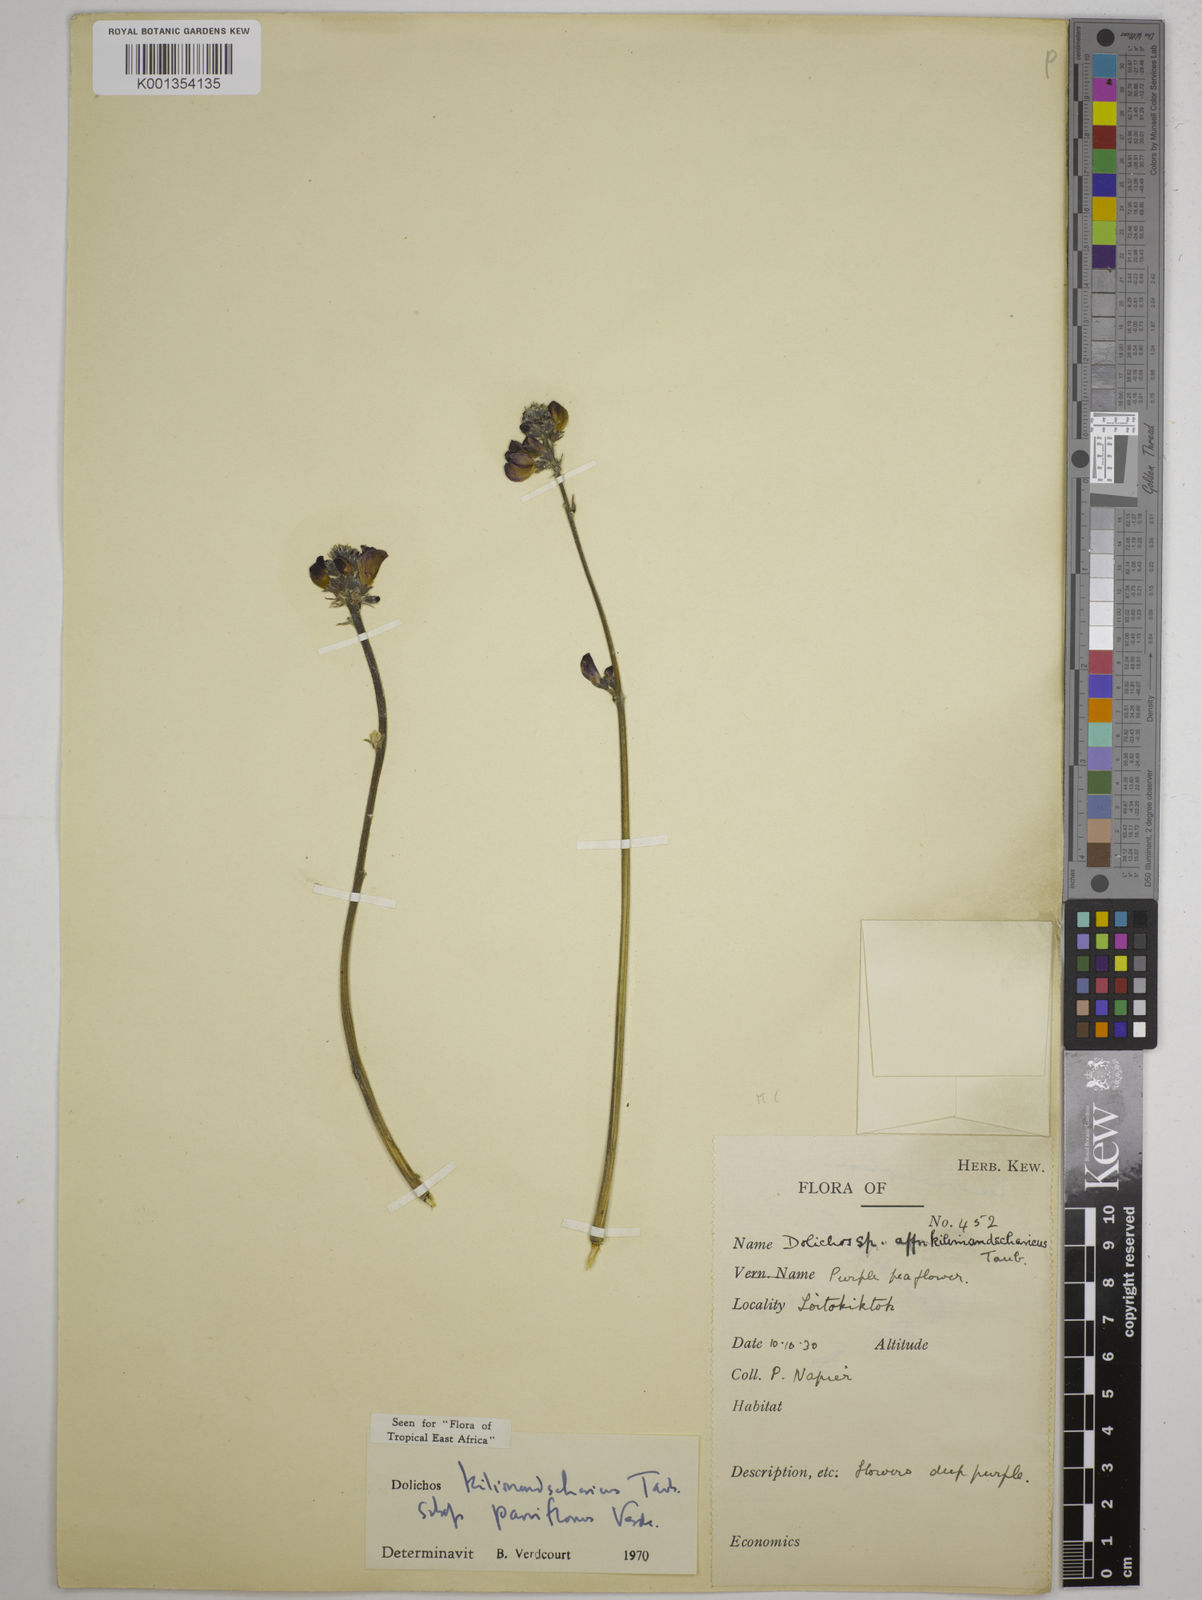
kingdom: Plantae
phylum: Tracheophyta
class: Magnoliopsida
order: Fabales
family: Fabaceae
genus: Dolichos
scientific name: Dolichos
